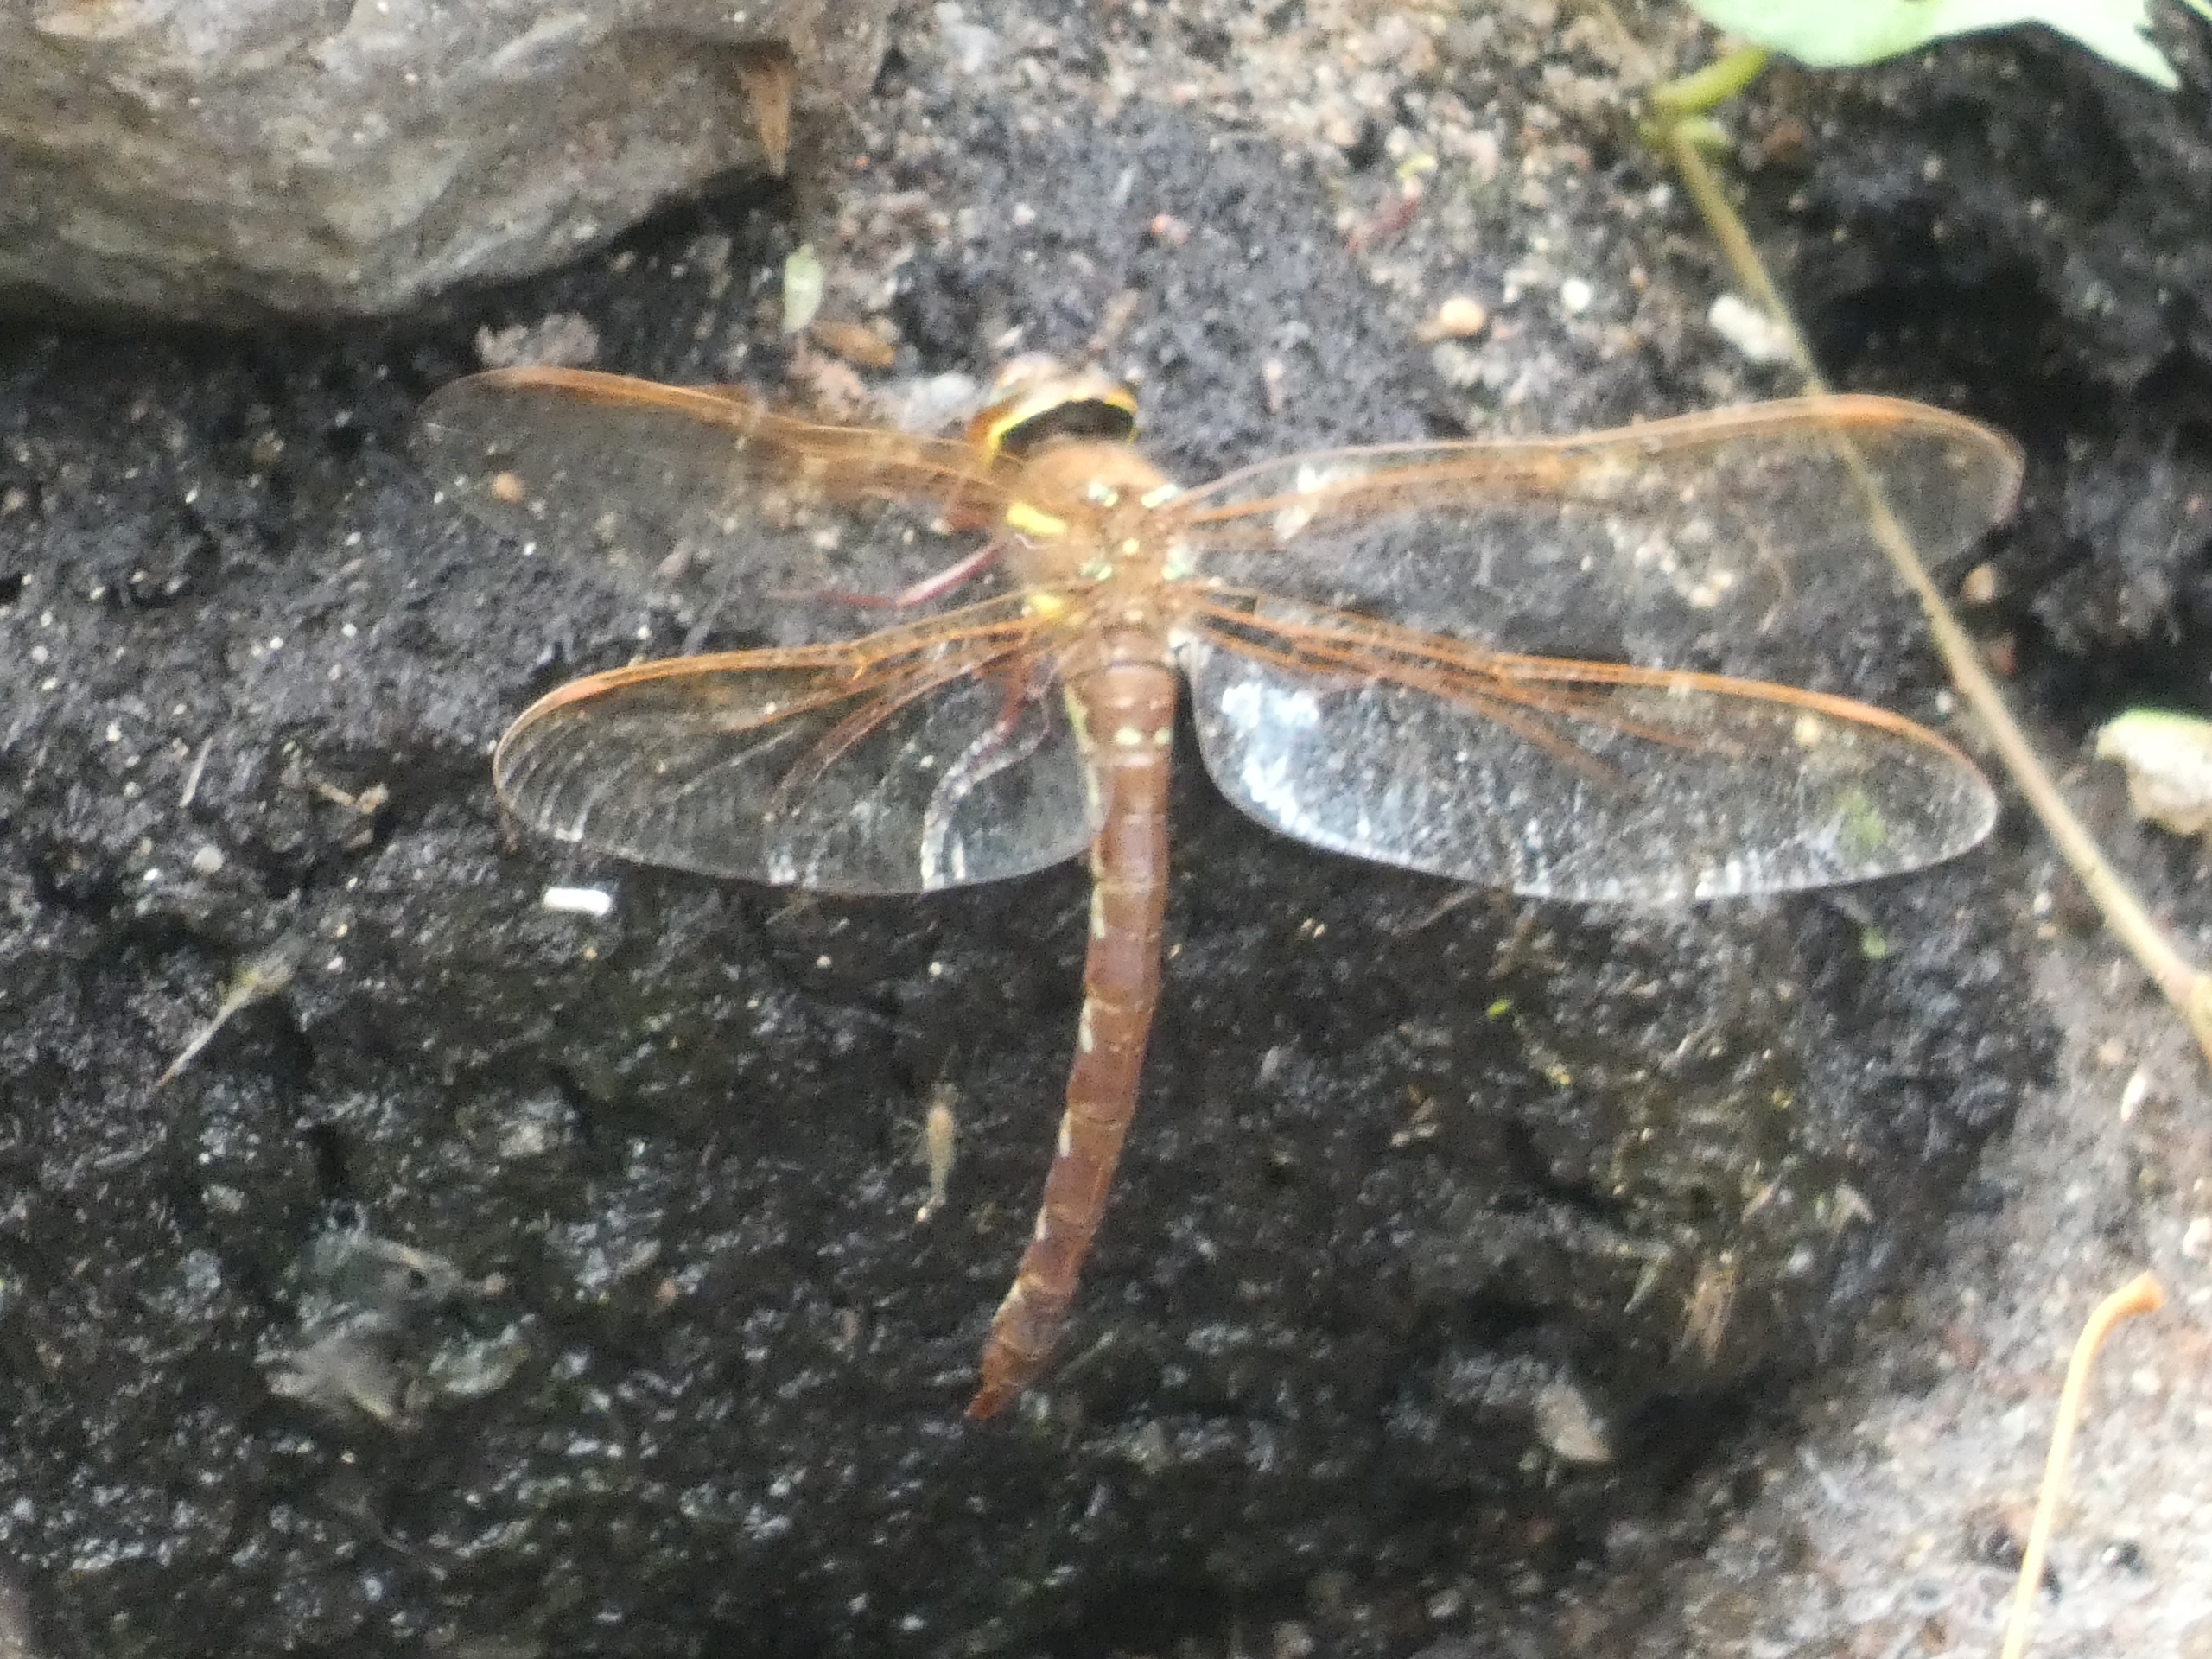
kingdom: Animalia
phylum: Arthropoda
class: Insecta
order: Odonata
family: Aeshnidae
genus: Aeshna
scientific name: Aeshna grandis
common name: Brun mosaikguldsmed
